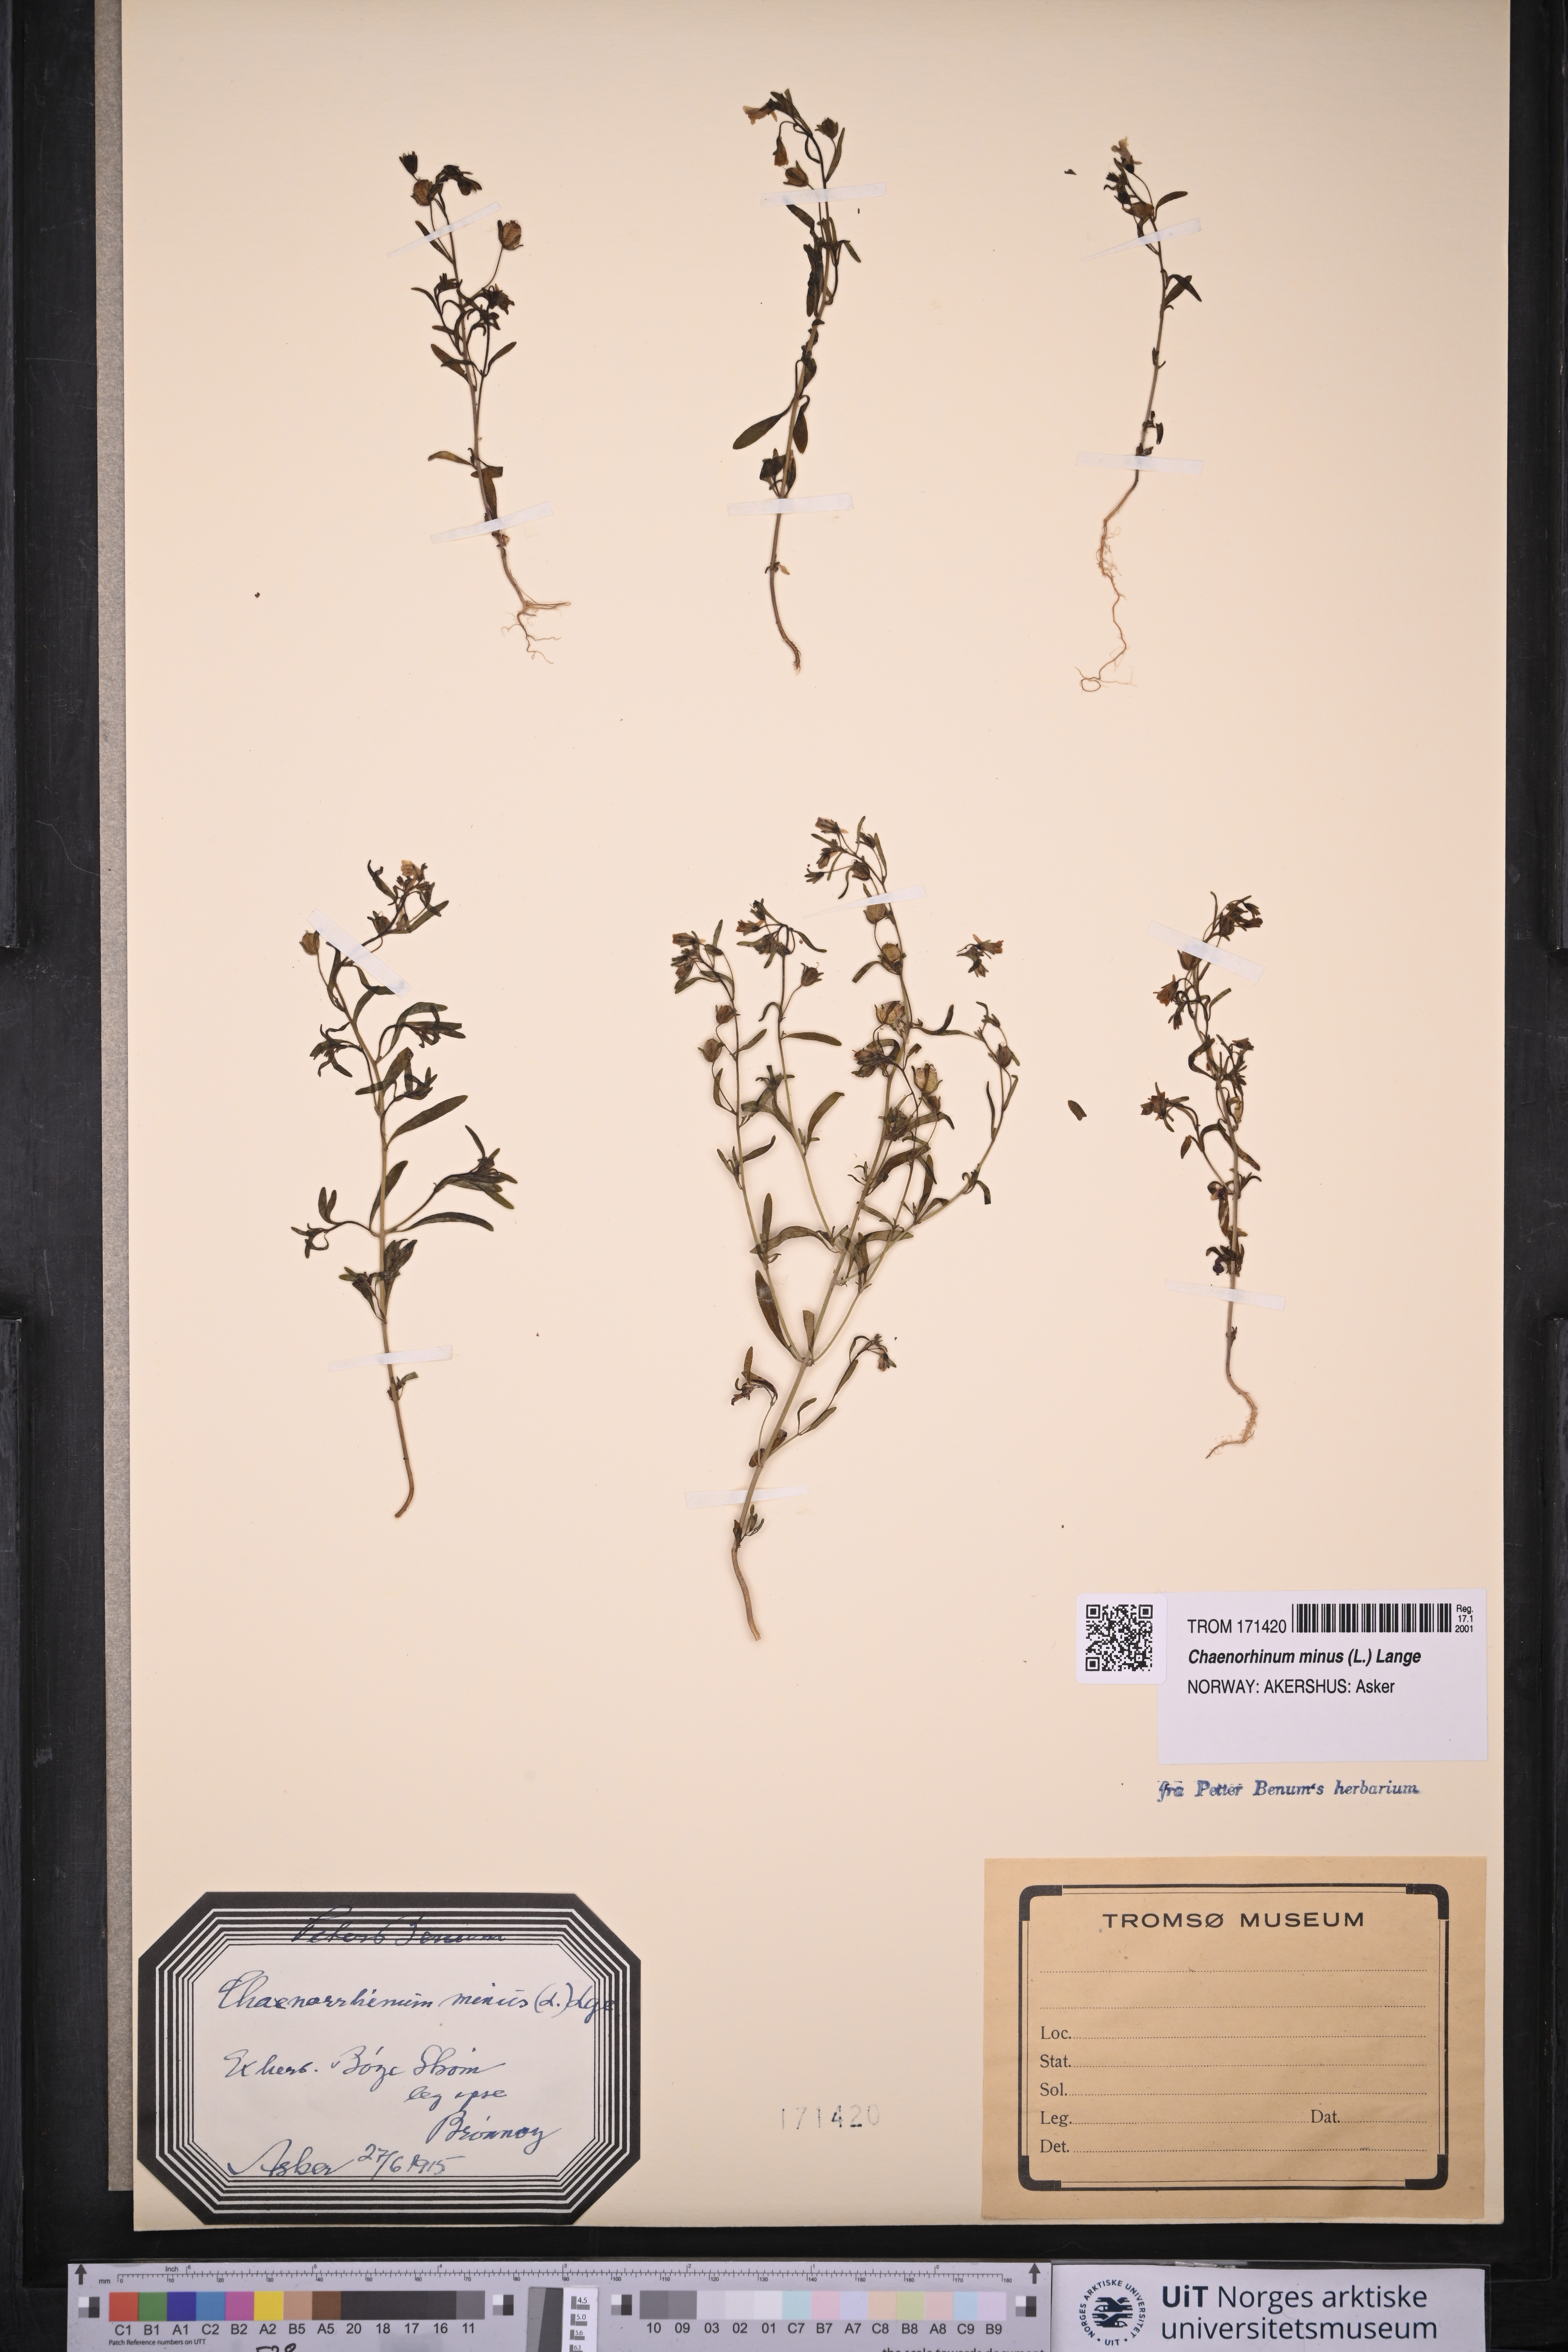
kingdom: Plantae
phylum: Tracheophyta
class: Magnoliopsida
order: Lamiales
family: Plantaginaceae
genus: Chaenorhinum
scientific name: Chaenorhinum minus
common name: Dwarf snapdragon
